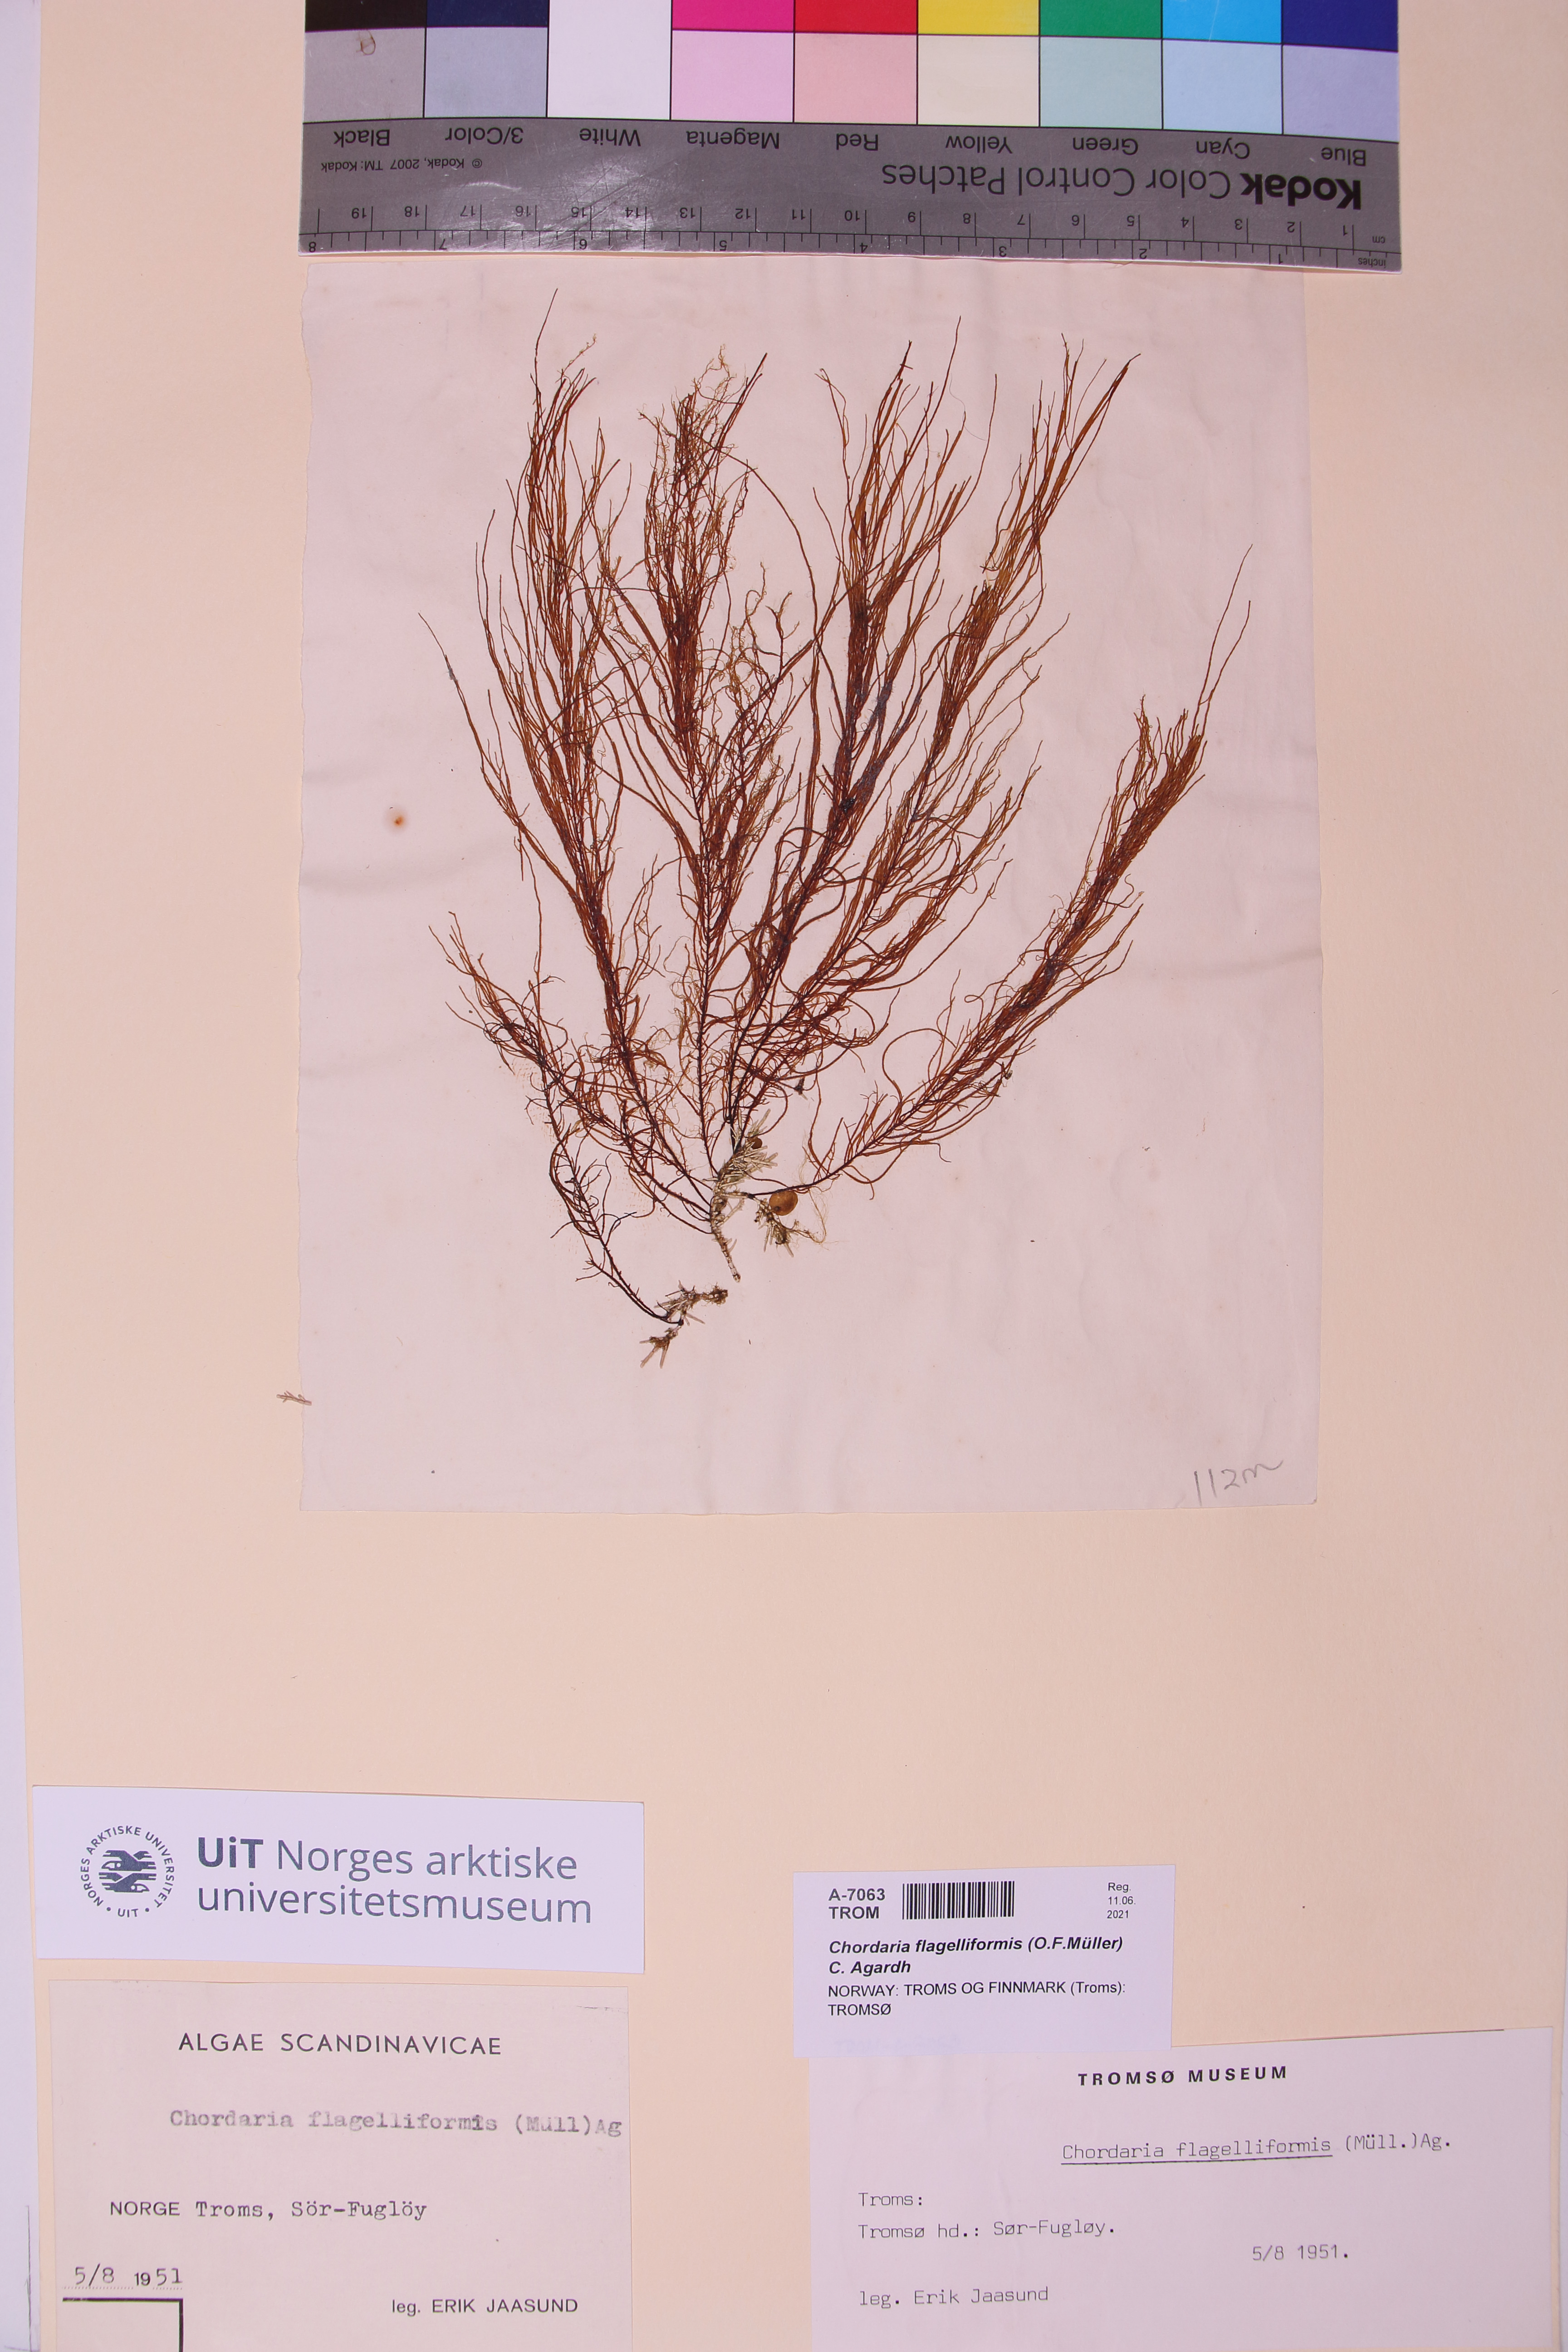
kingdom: Chromista
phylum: Ochrophyta
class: Phaeophyceae
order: Ectocarpales
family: Chordariaceae
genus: Chordaria
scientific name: Chordaria flagelliformis
